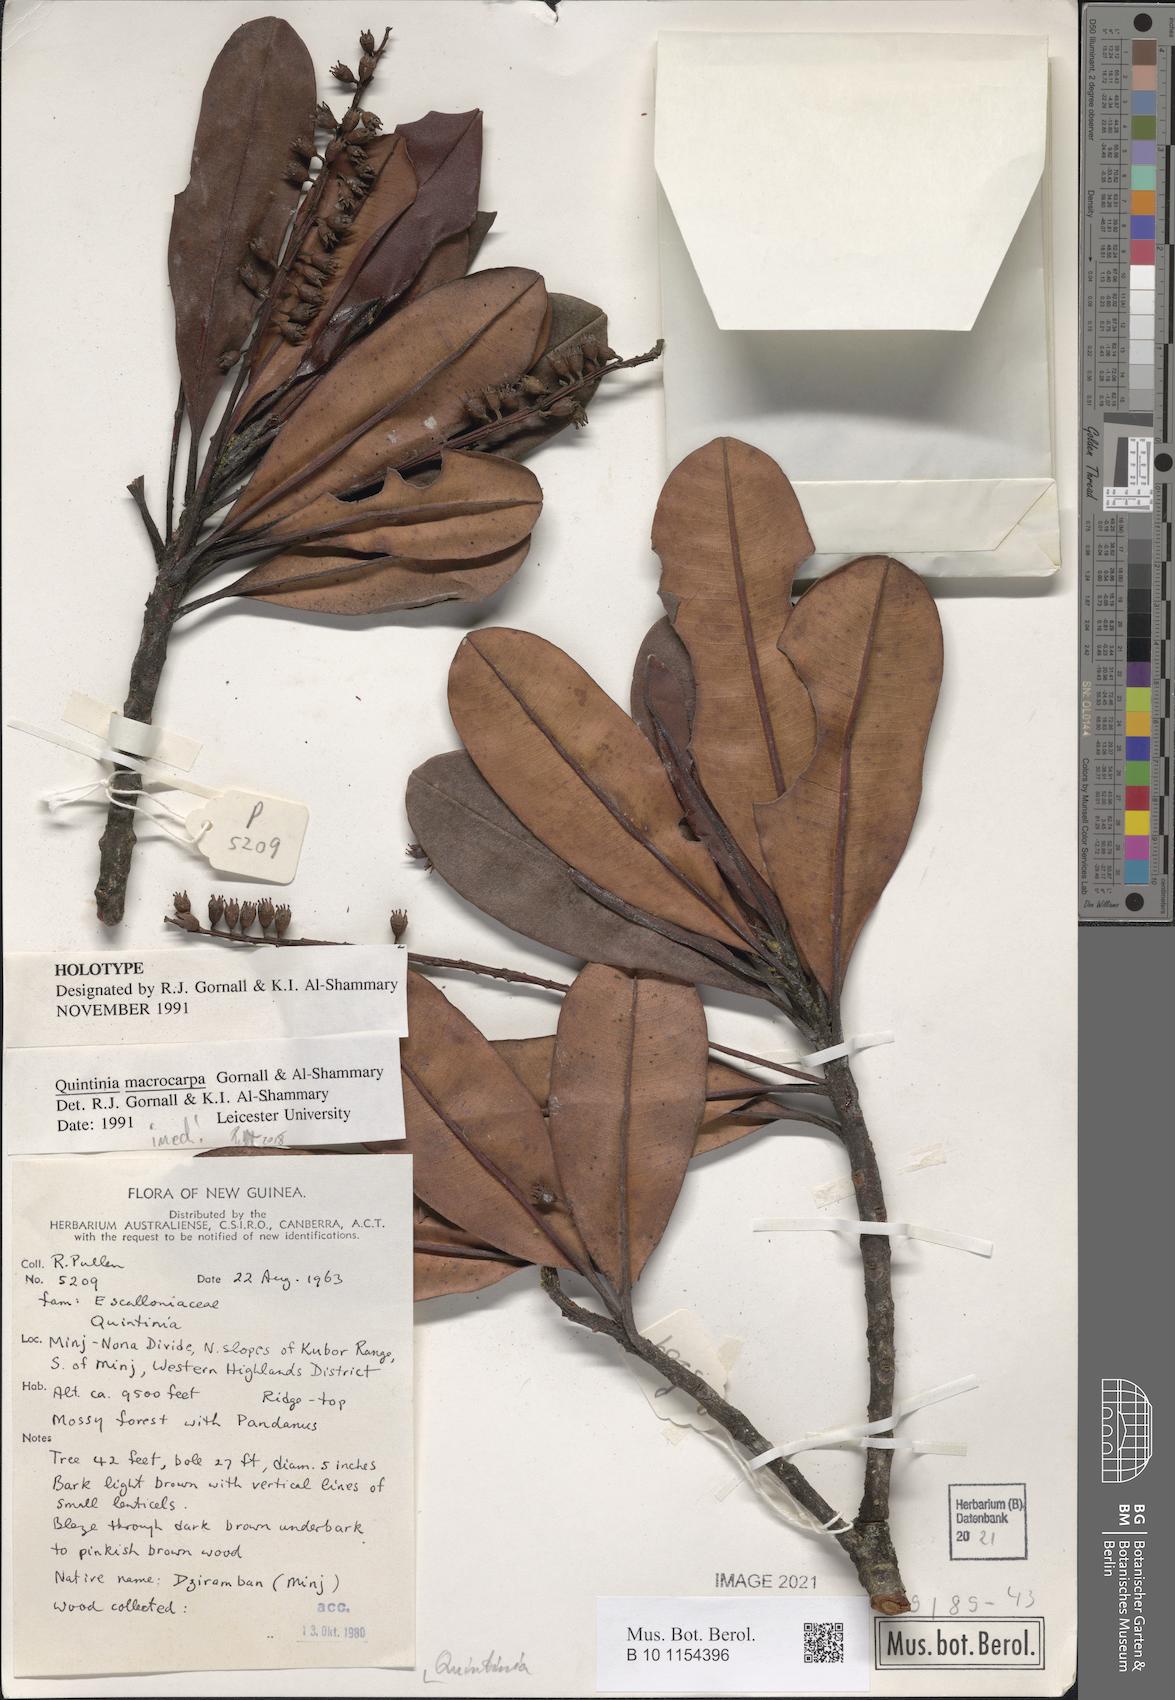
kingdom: Plantae
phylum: Tracheophyta
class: Magnoliopsida
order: Paracryphiales
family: Paracryphiaceae
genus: Quintinia
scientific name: Quintinia
